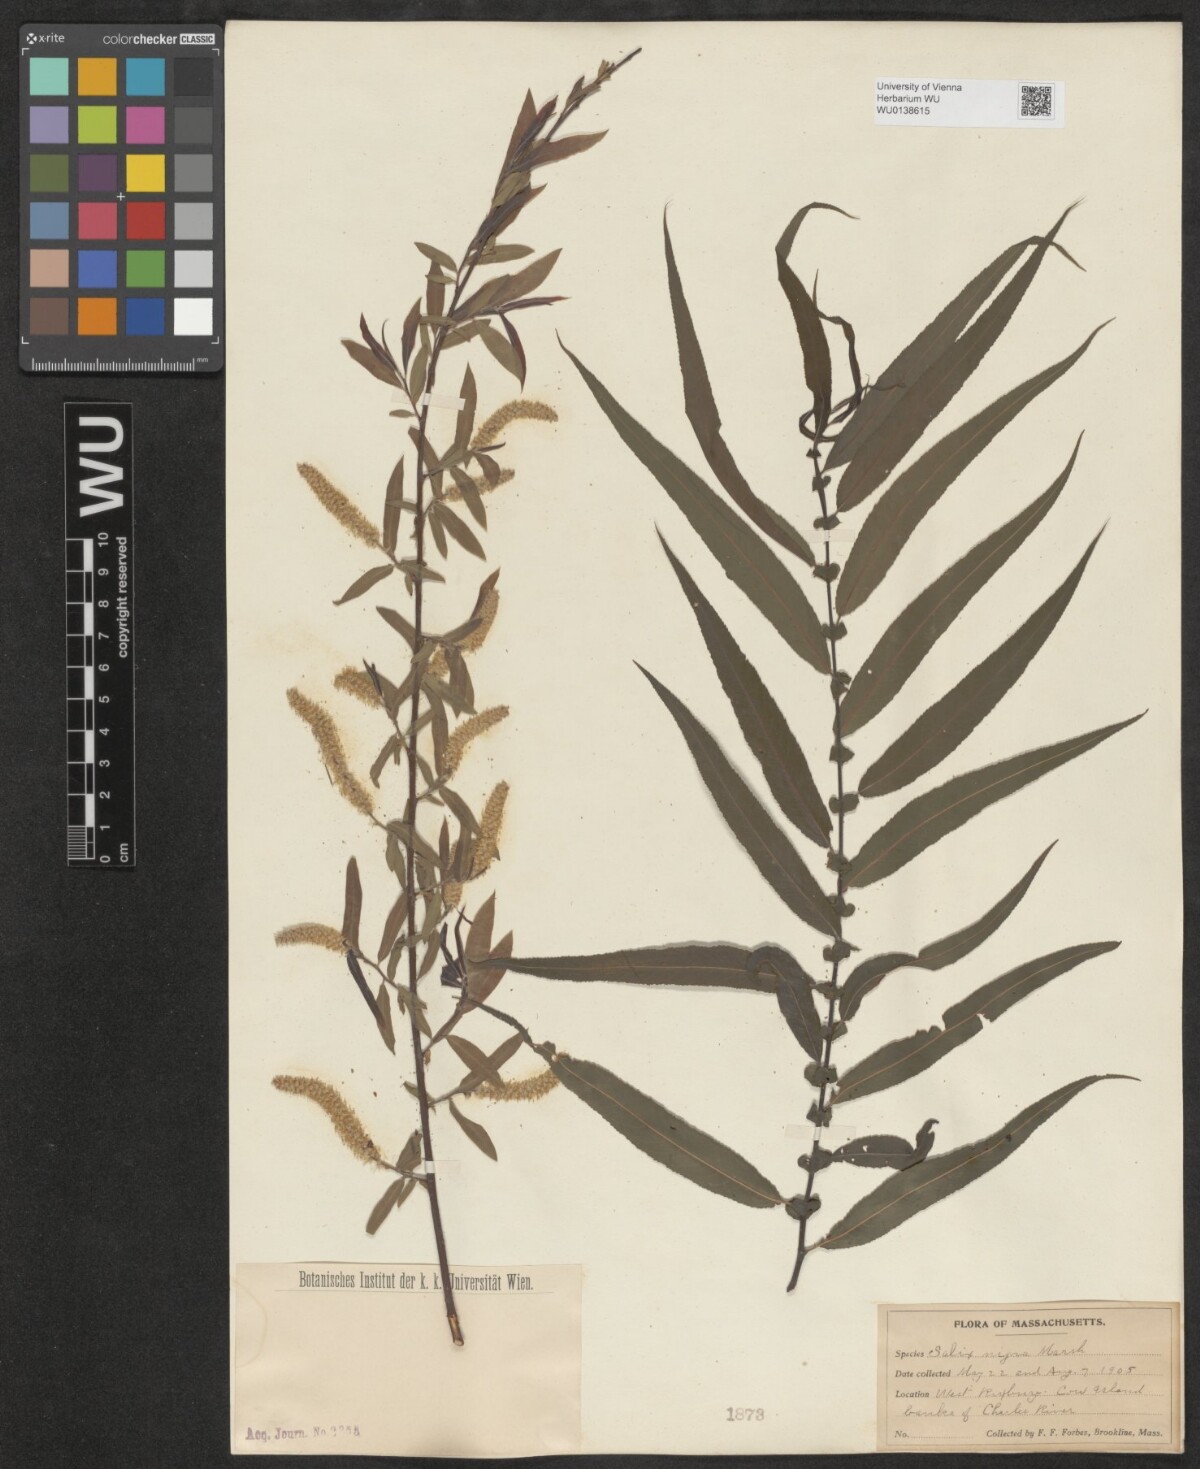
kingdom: Plantae
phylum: Tracheophyta
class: Magnoliopsida
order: Malpighiales
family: Salicaceae
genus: Salix
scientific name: Salix nigra
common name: Black willow
